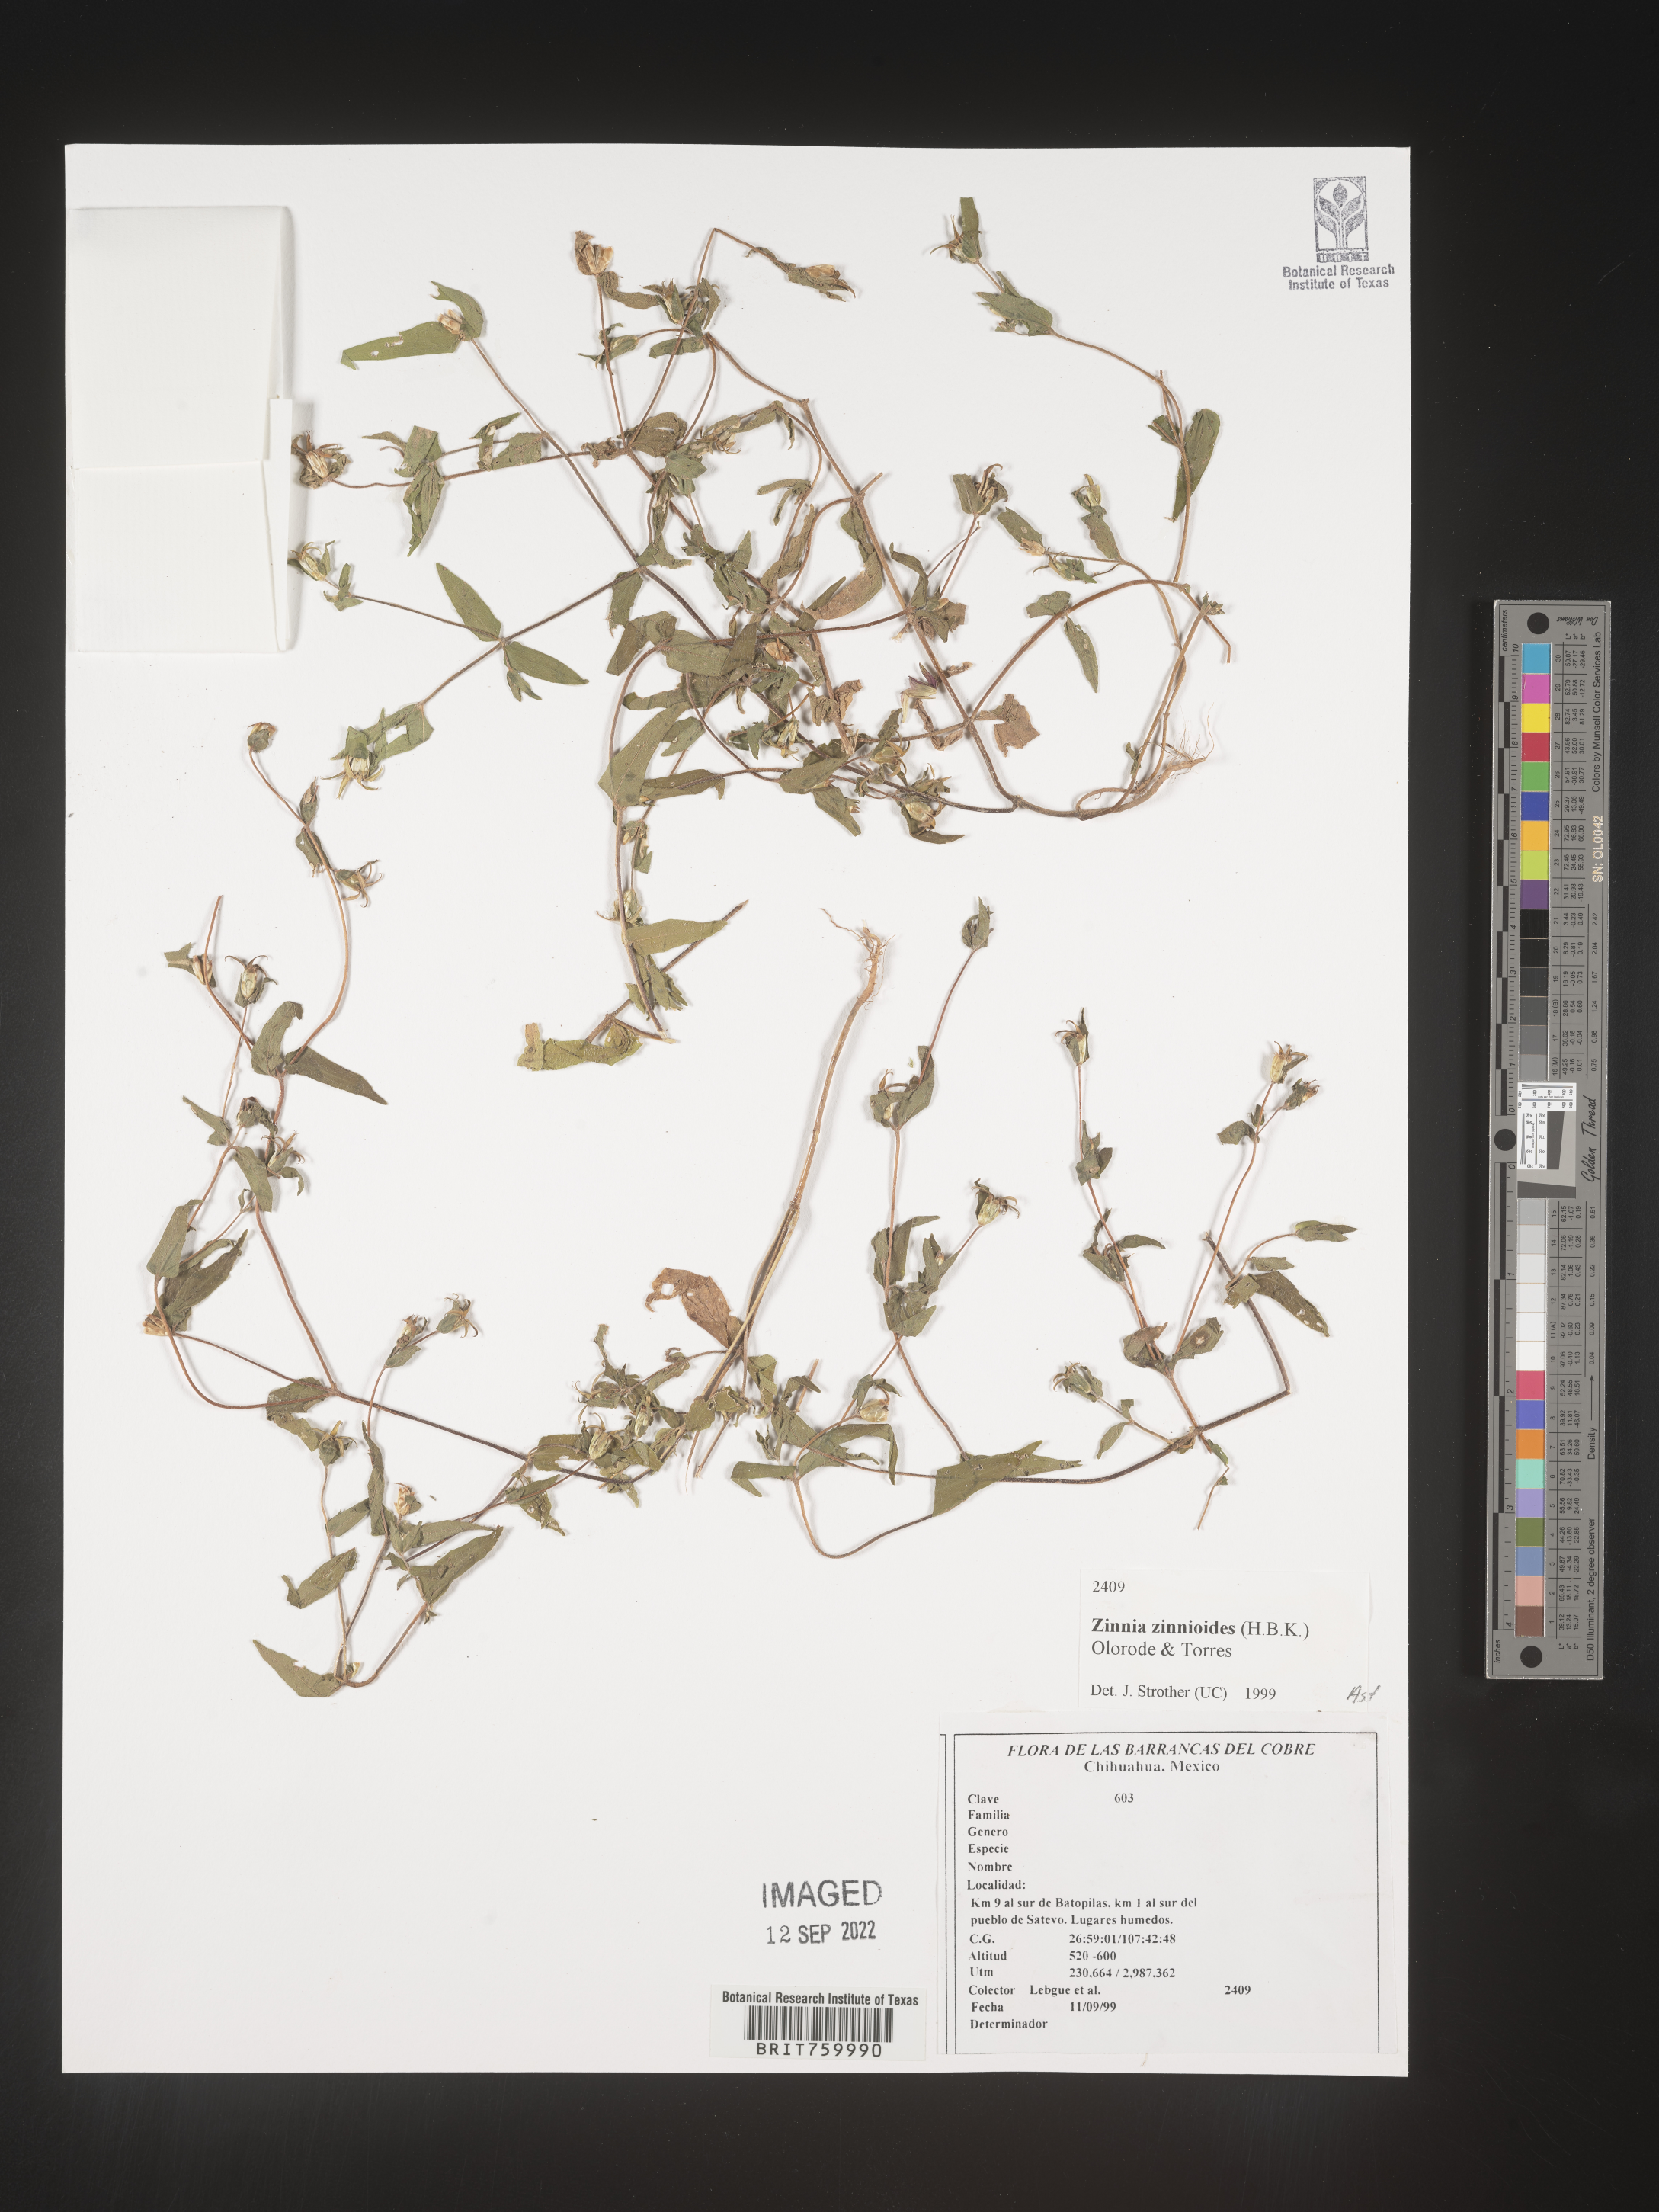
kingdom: Plantae
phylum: Tracheophyta
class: Magnoliopsida
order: Asterales
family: Asteraceae
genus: Zinnia
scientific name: Zinnia
